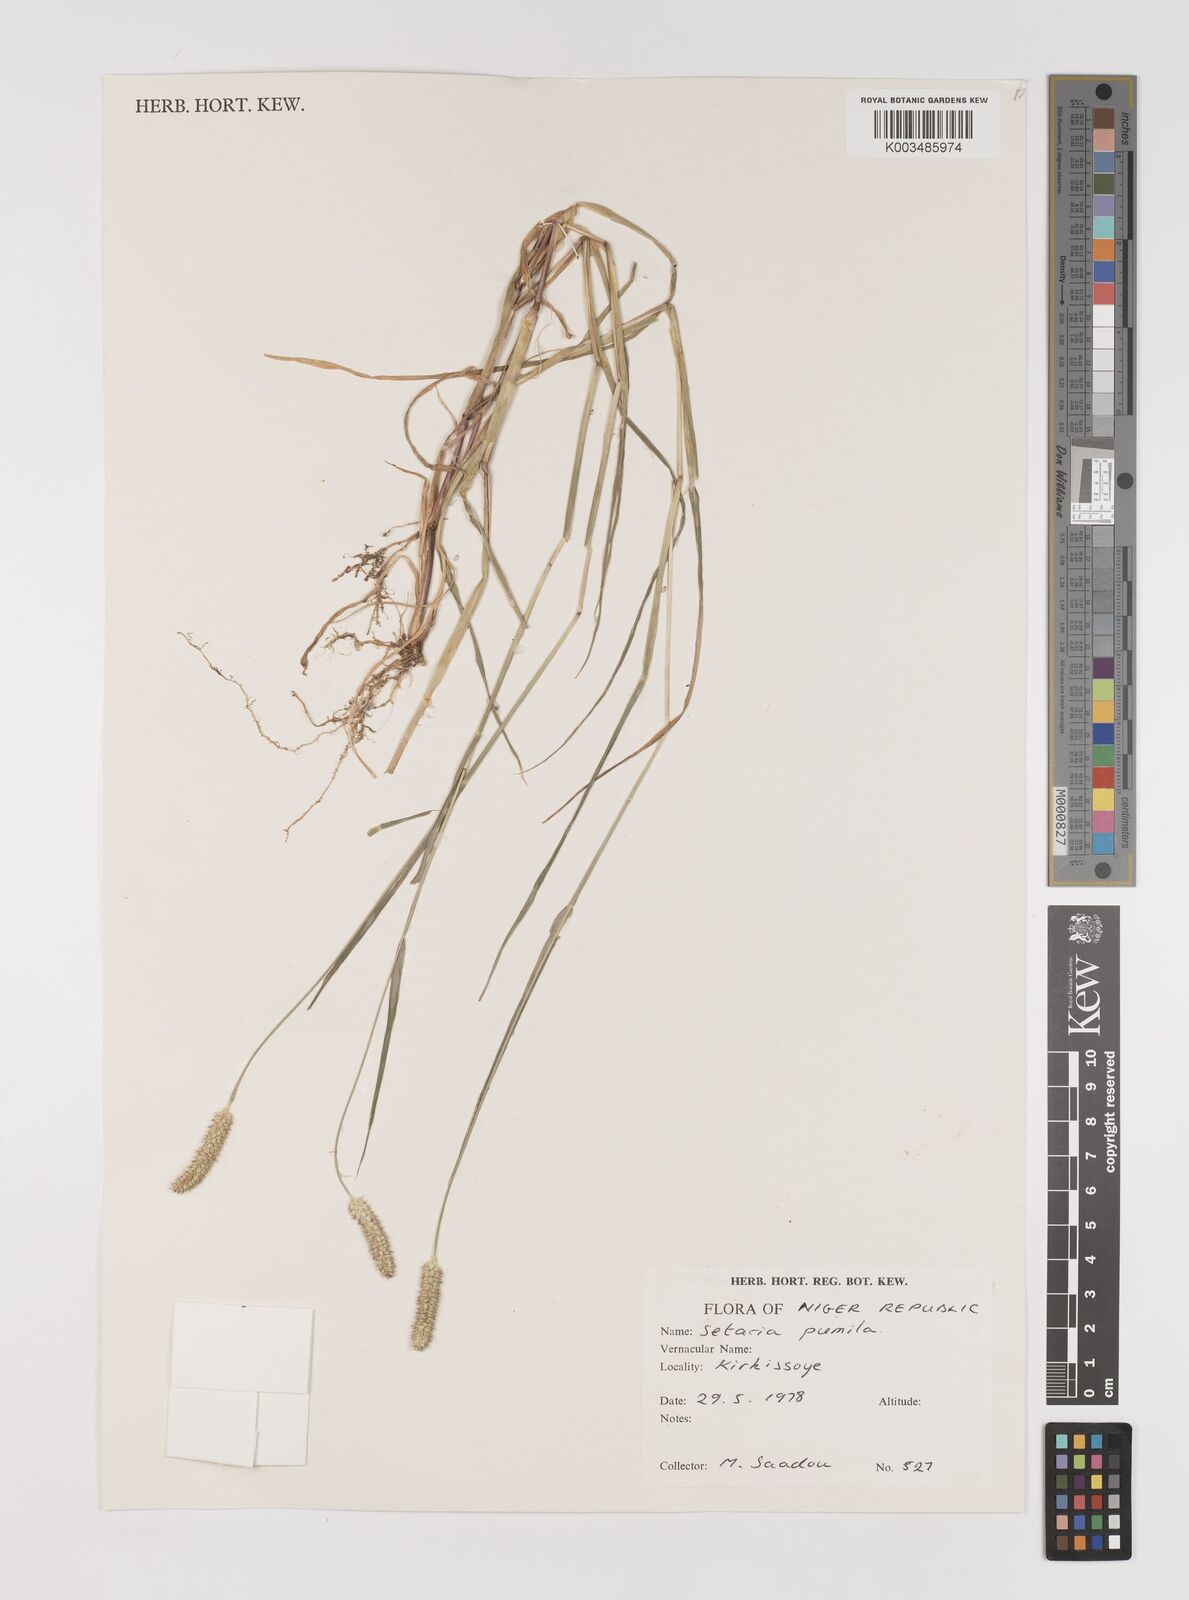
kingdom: Plantae
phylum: Tracheophyta
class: Liliopsida
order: Poales
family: Poaceae
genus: Setaria
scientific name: Setaria pumila
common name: Yellow bristle-grass
